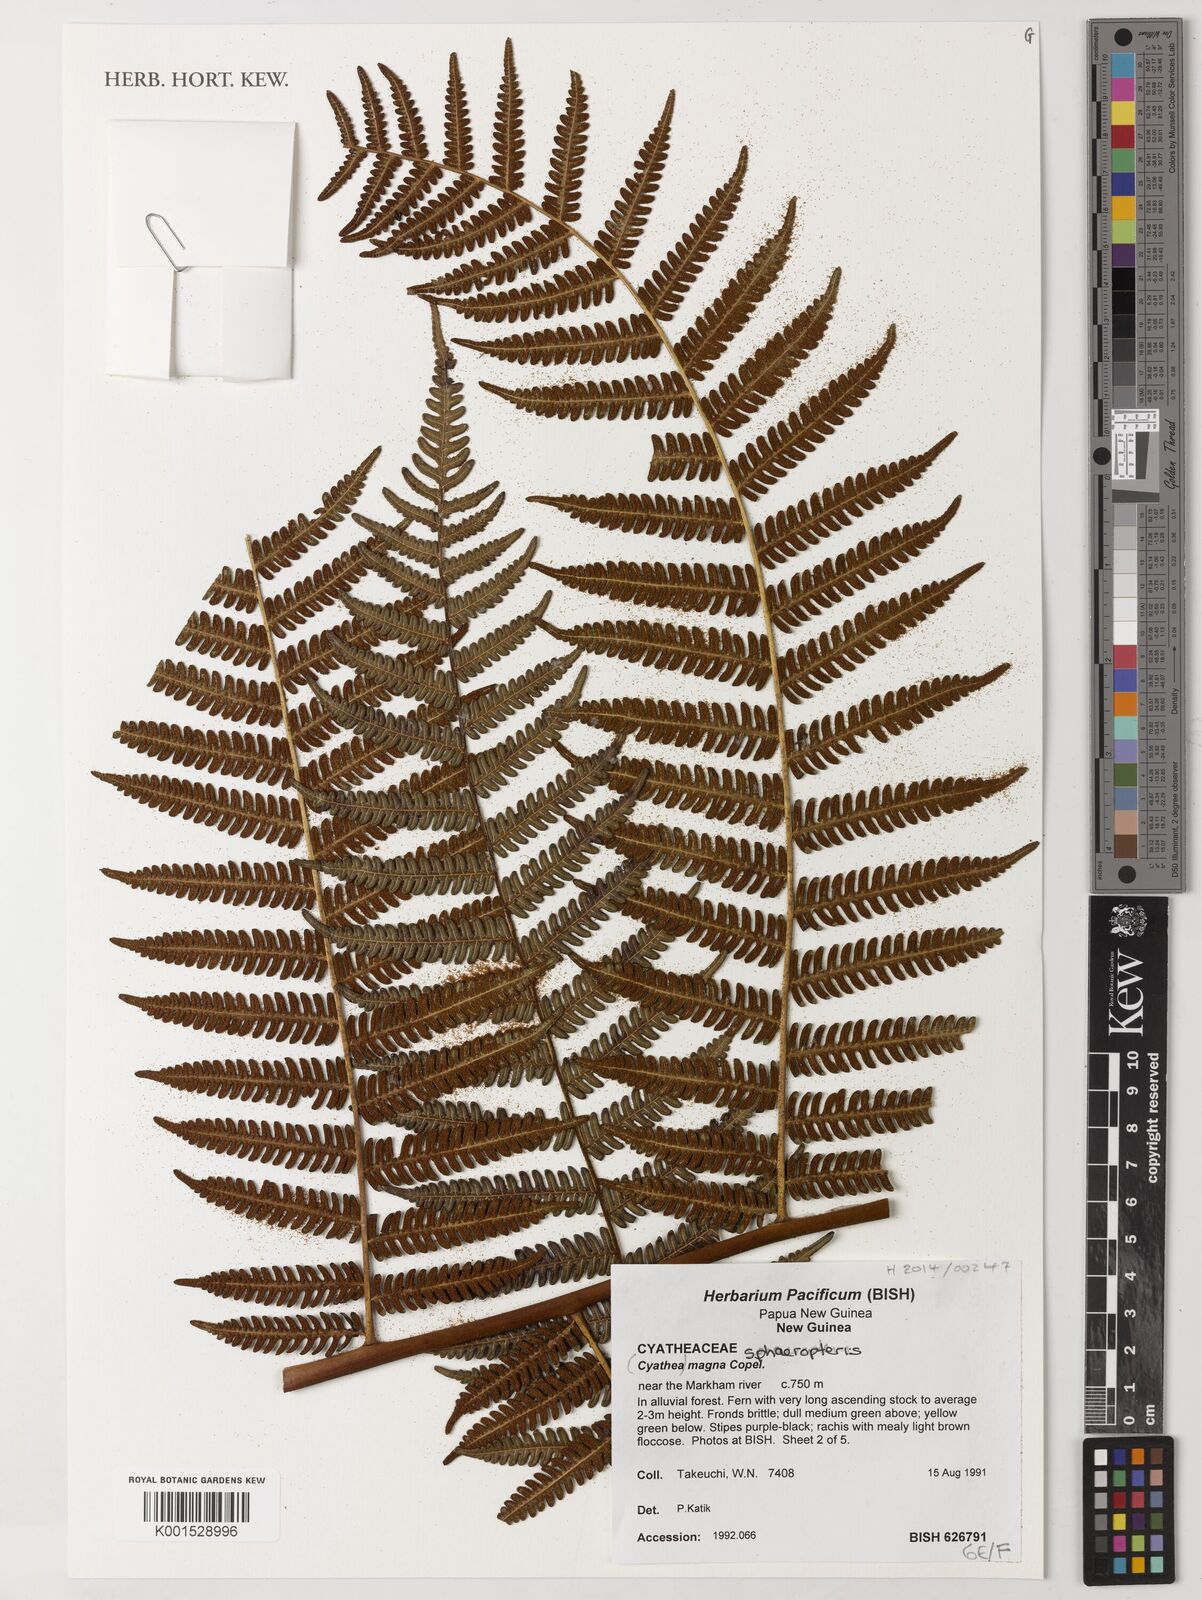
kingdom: Plantae
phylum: Tracheophyta
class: Polypodiopsida
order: Cyatheales
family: Cyatheaceae
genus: Sphaeropteris
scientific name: Sphaeropteris magna
